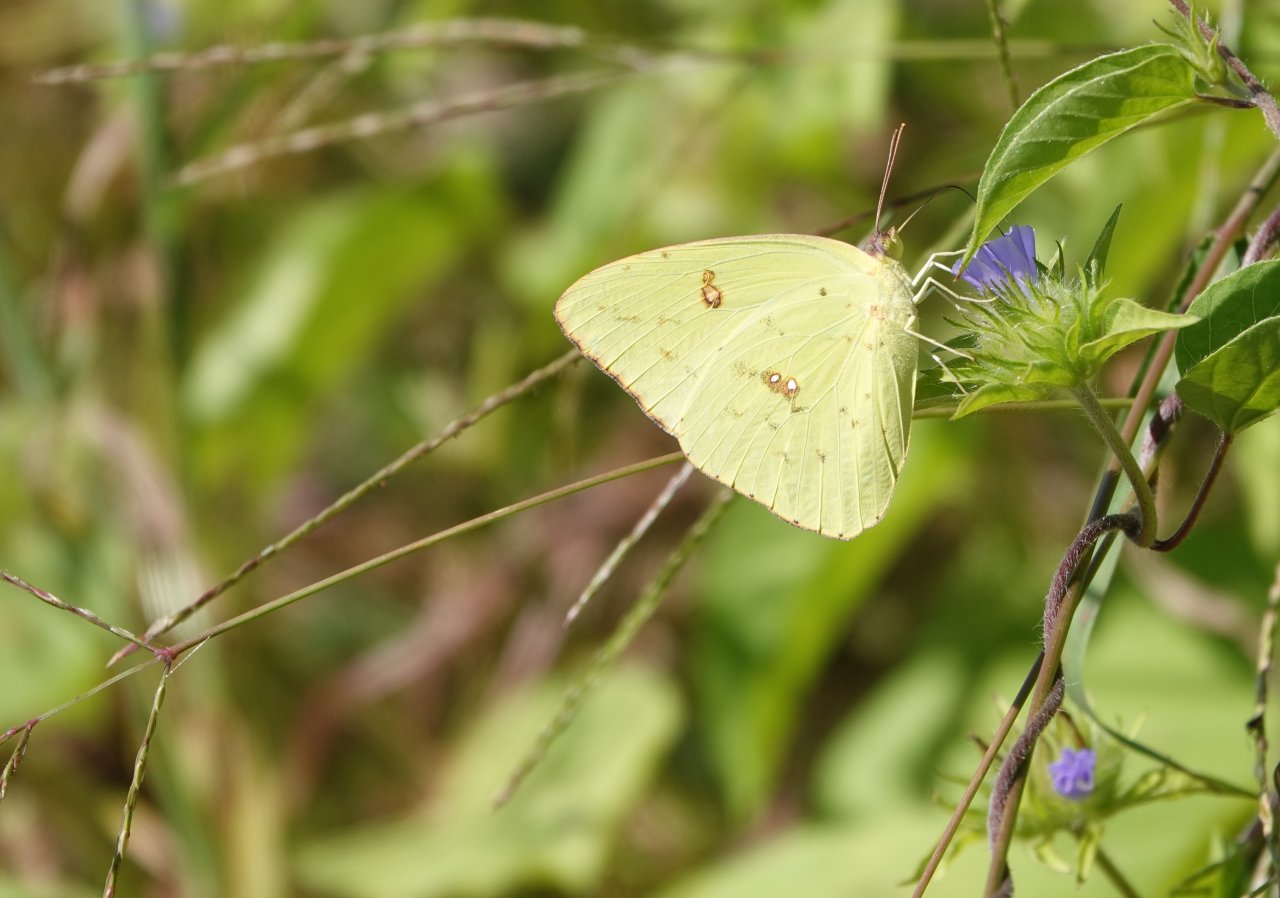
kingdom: Animalia
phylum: Arthropoda
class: Insecta
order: Lepidoptera
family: Pieridae
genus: Phoebis
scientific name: Phoebis sennae
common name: Cloudless Sulphur
